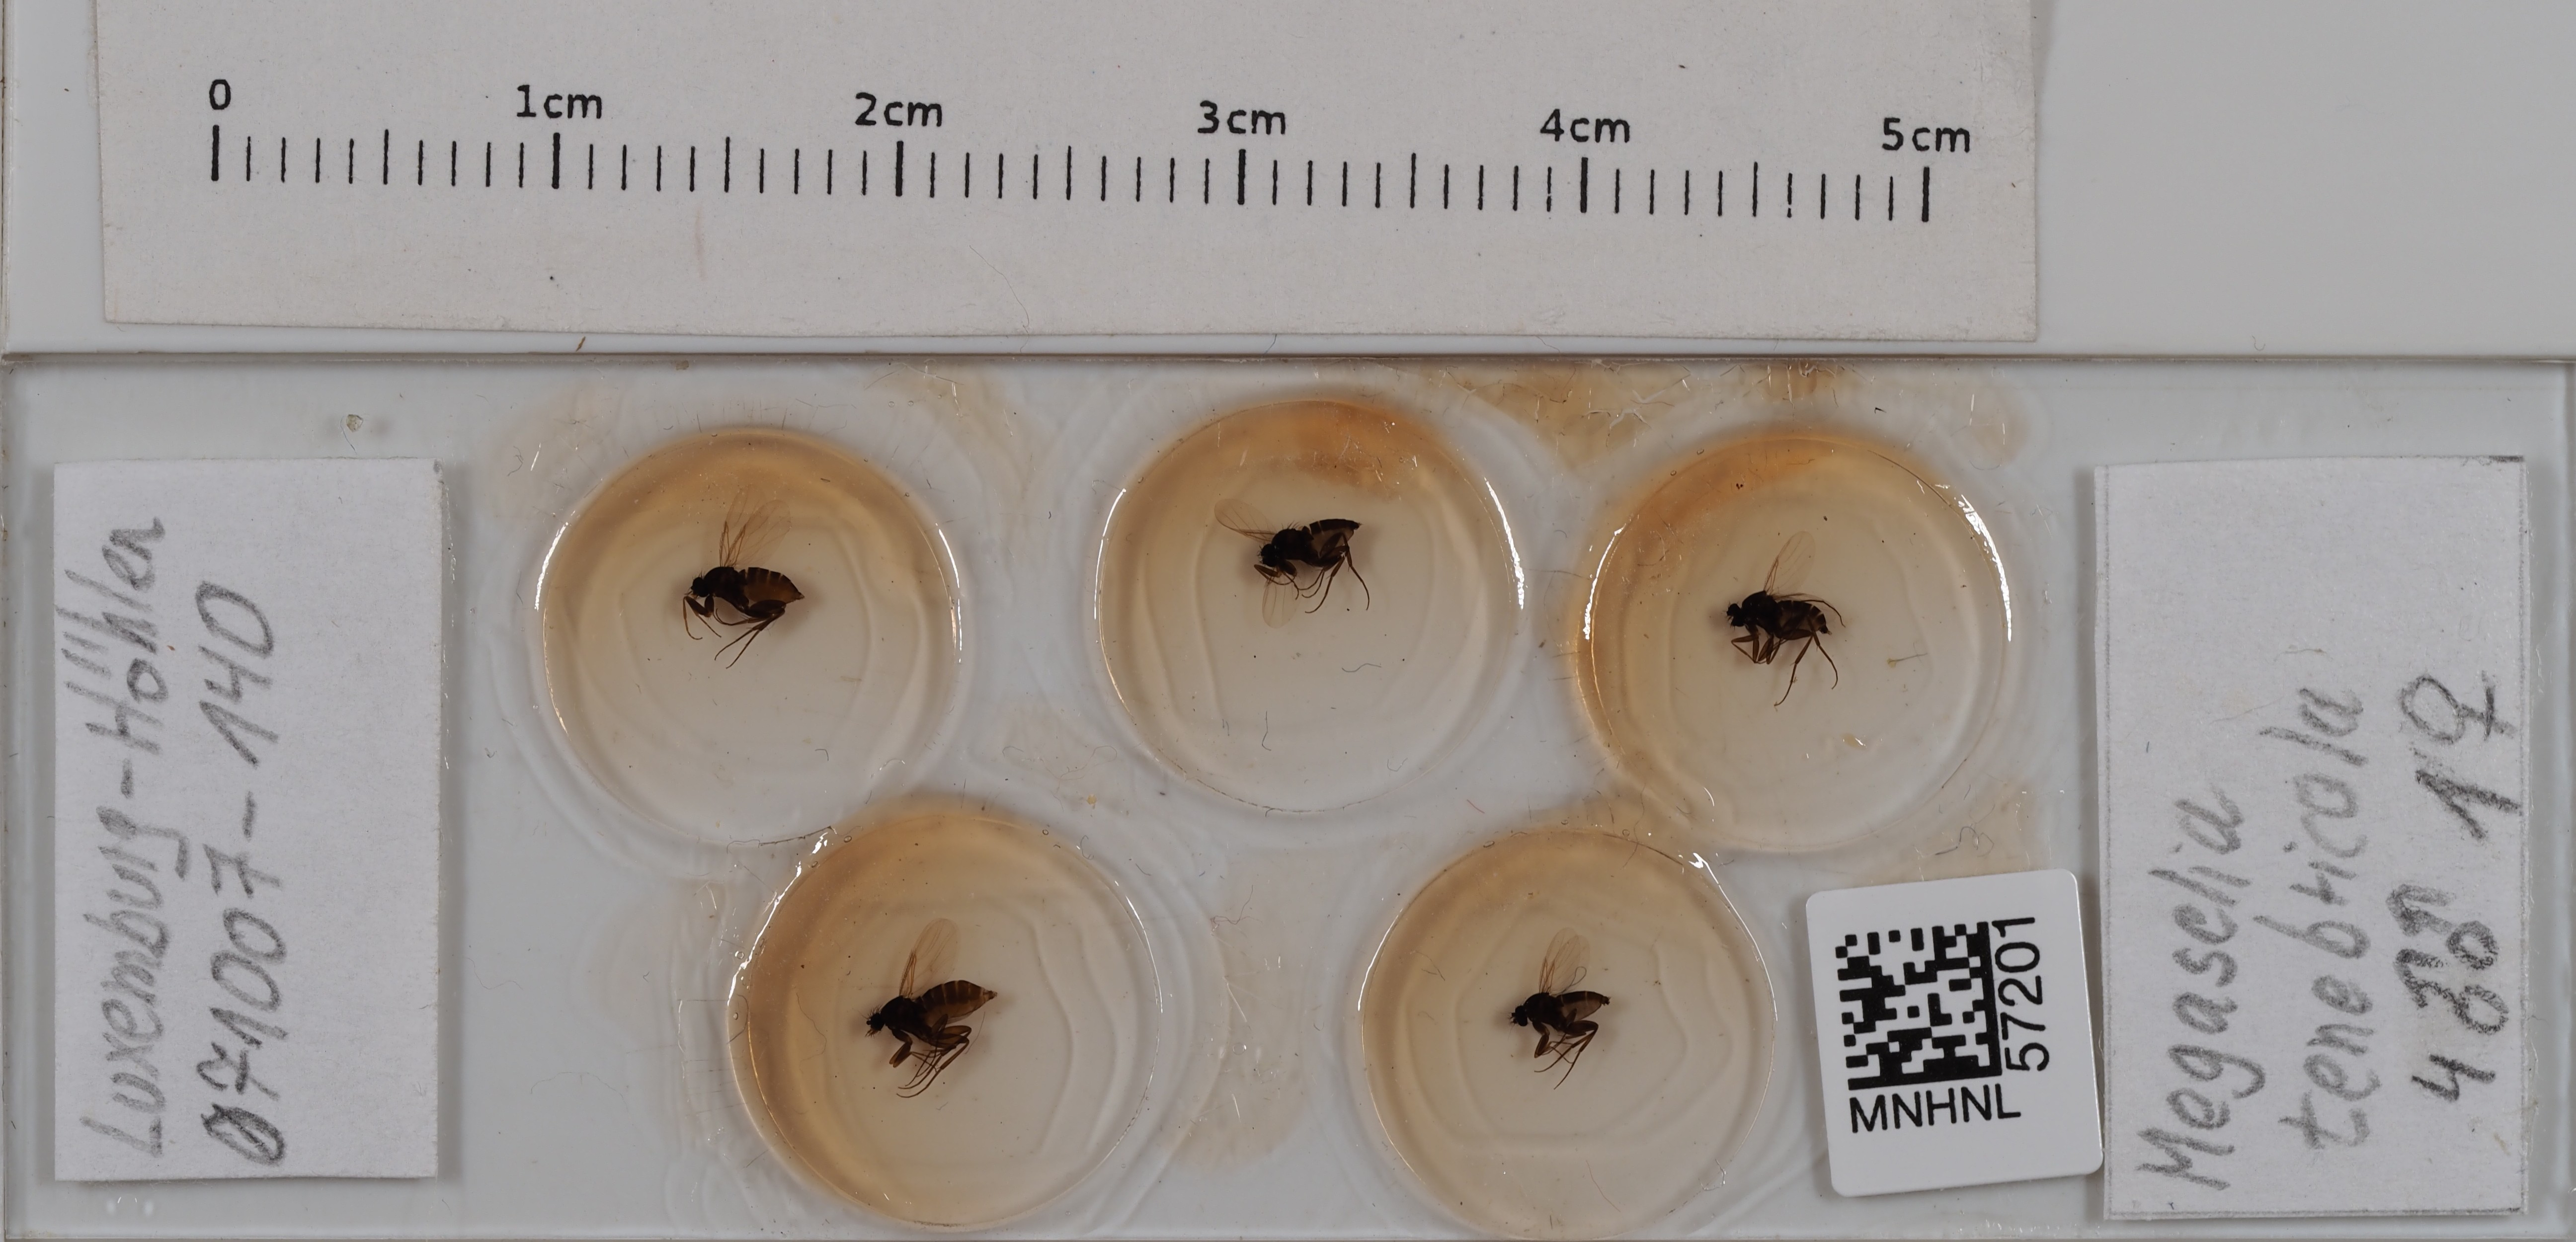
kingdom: Animalia
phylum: Arthropoda
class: Insecta
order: Diptera
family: Phoridae
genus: Megaselia
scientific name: Megaselia tenebricola
